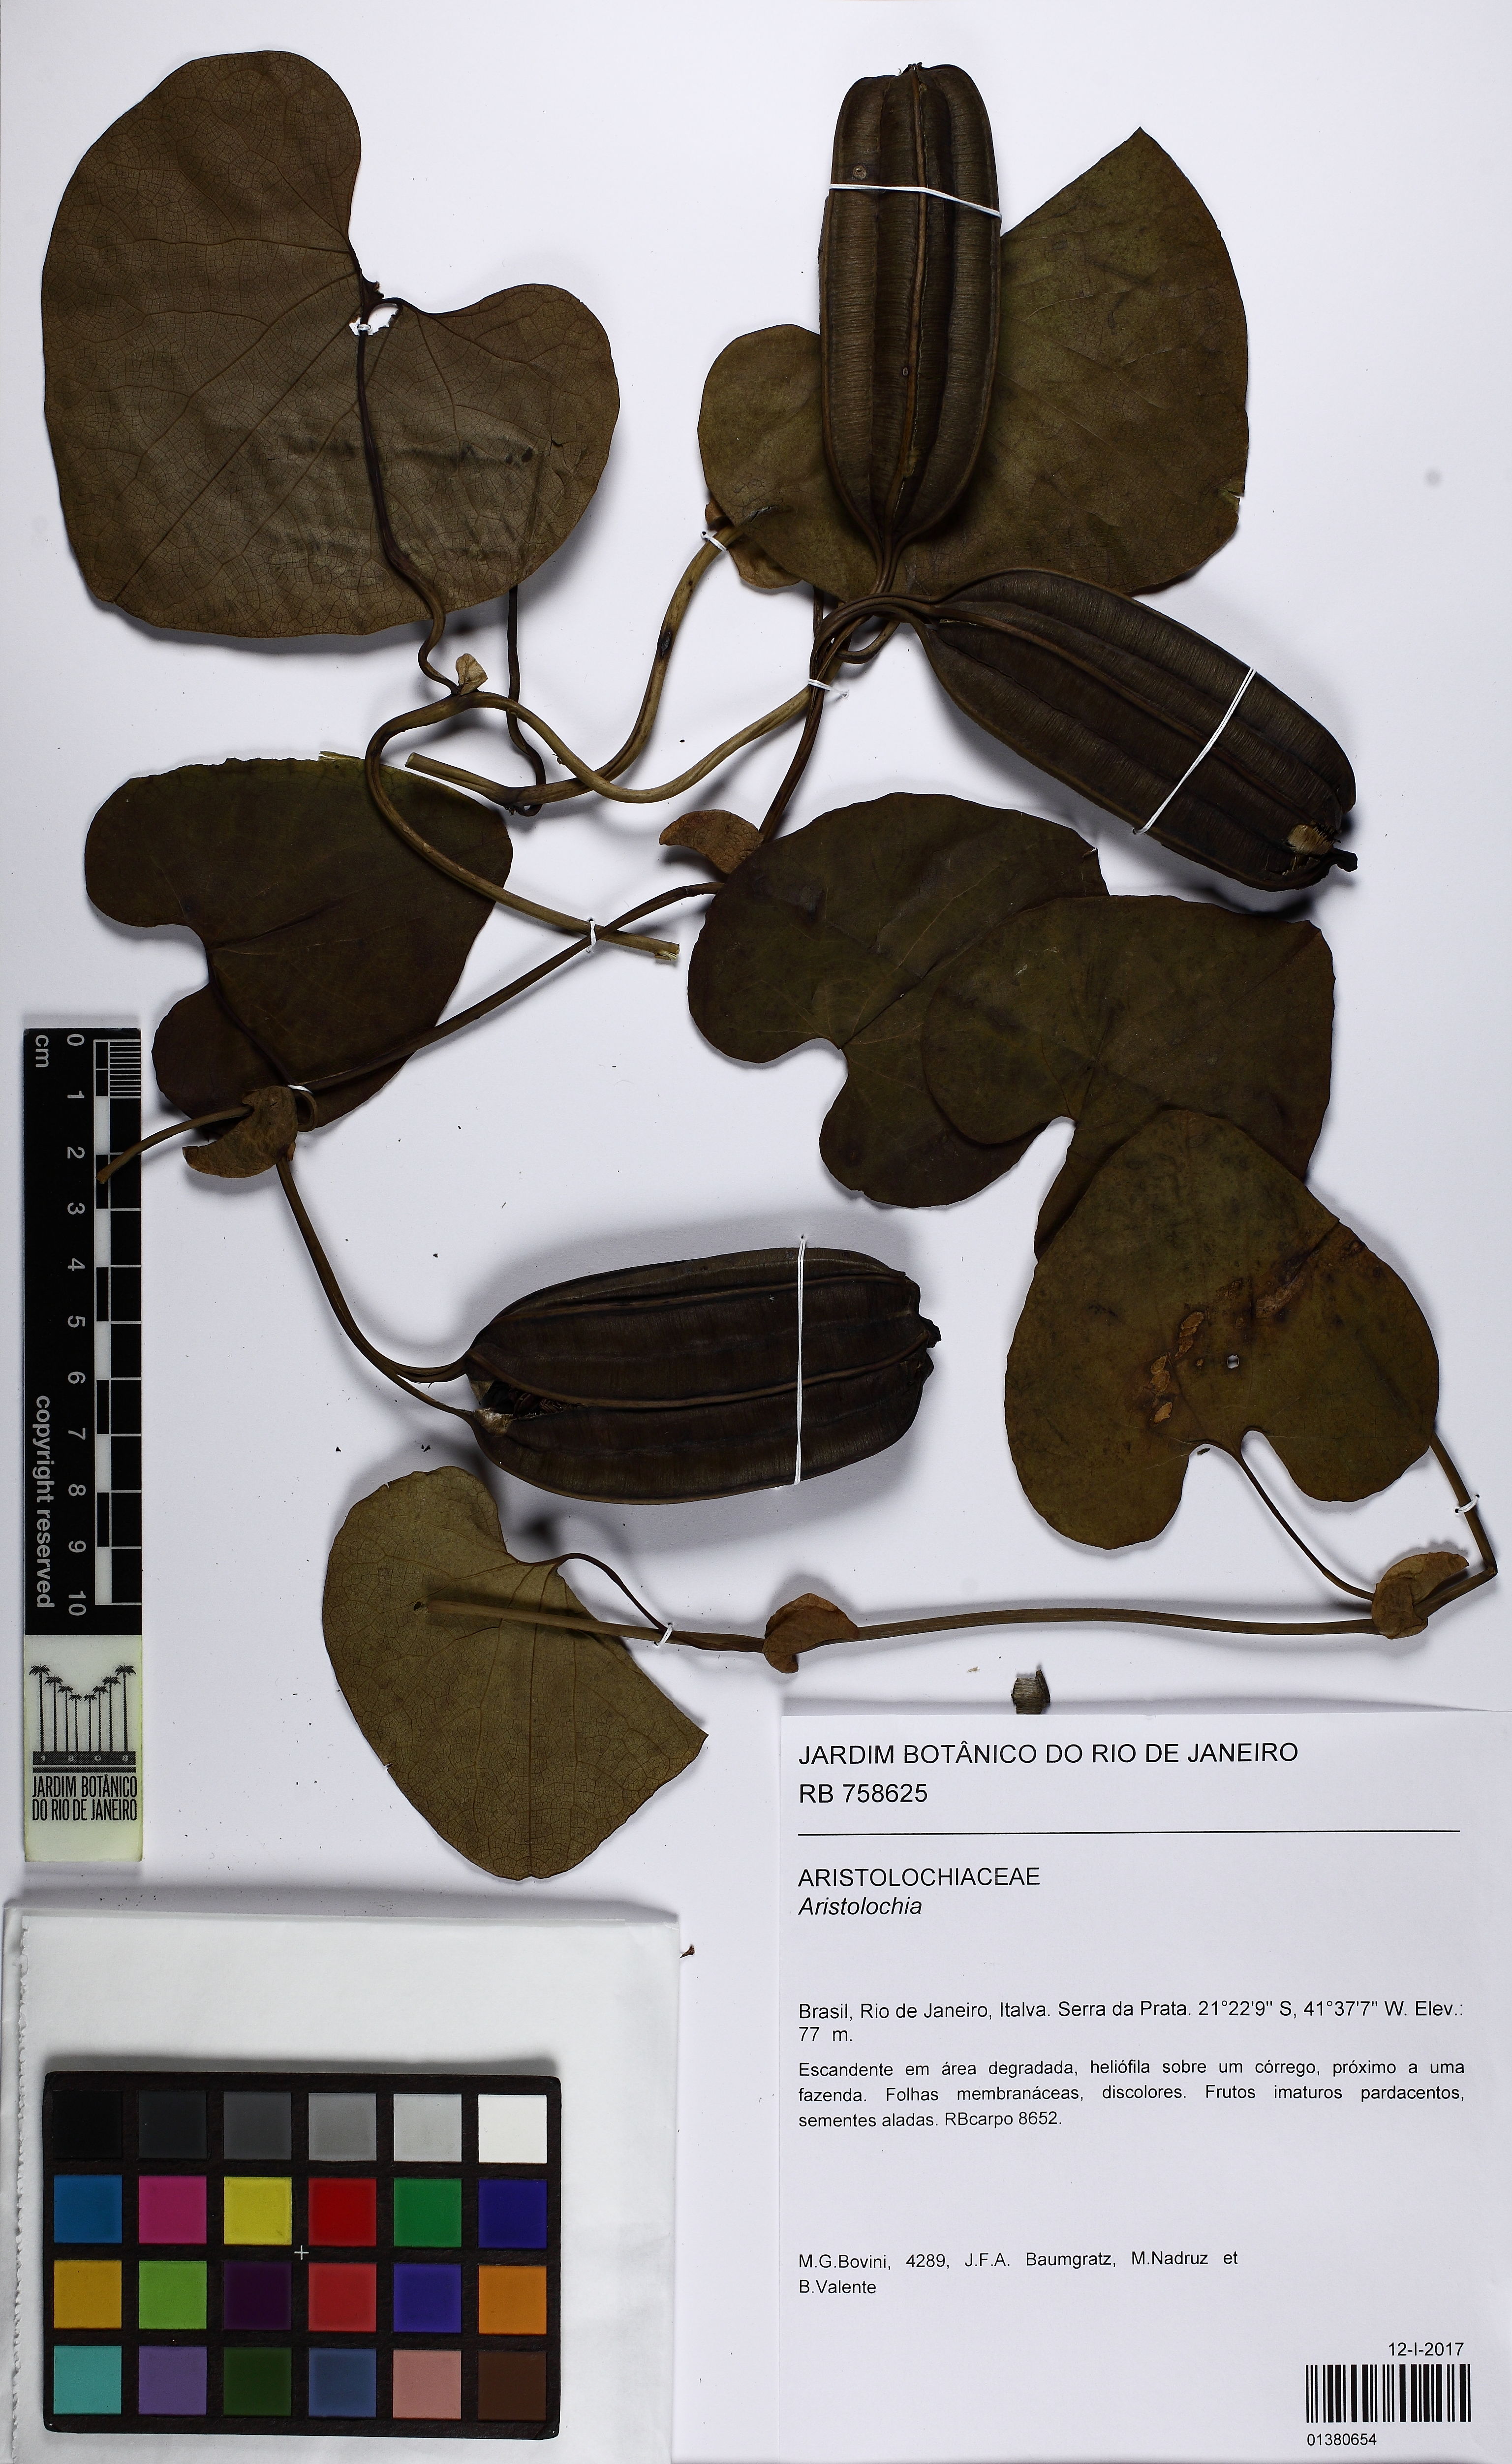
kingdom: Plantae
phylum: Tracheophyta
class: Magnoliopsida
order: Piperales
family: Aristolochiaceae
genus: Aristolochia
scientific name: Aristolochia
